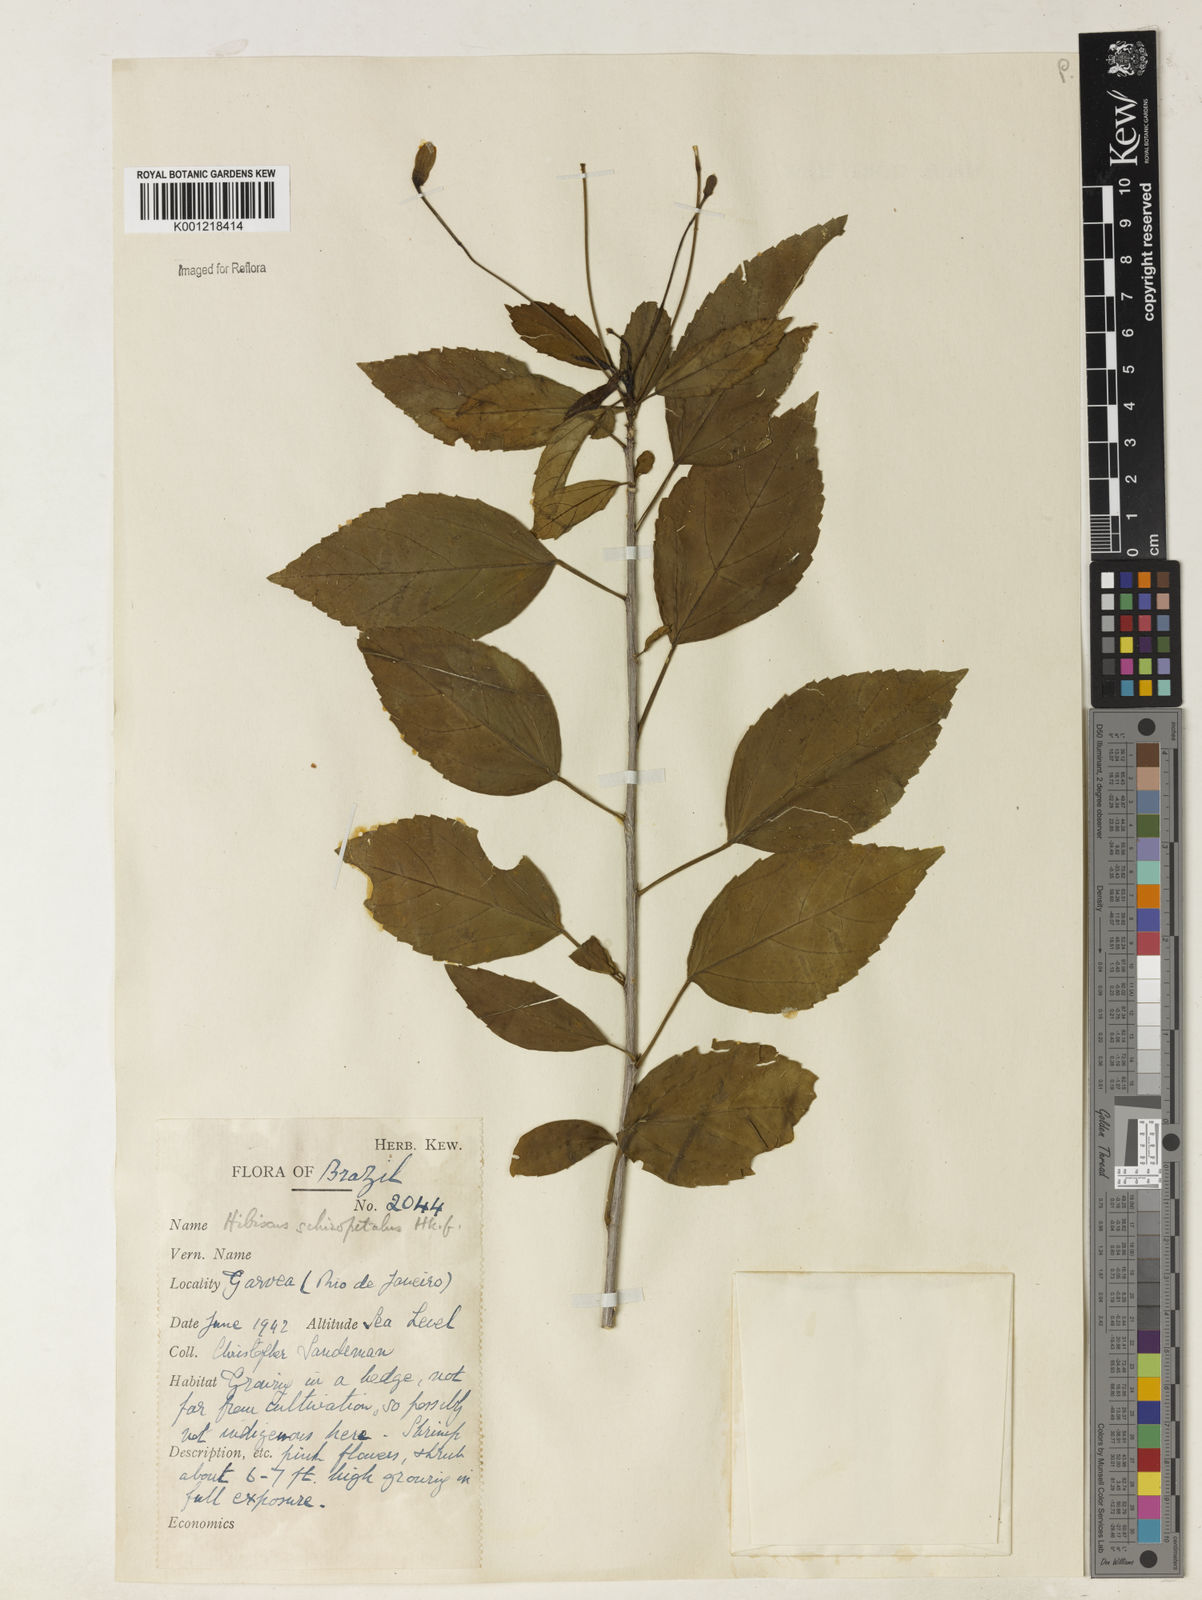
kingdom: Plantae
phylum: Tracheophyta
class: Magnoliopsida
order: Malvales
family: Malvaceae
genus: Hibiscus
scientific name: Hibiscus schizopetalus
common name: Fringed rosemallow
